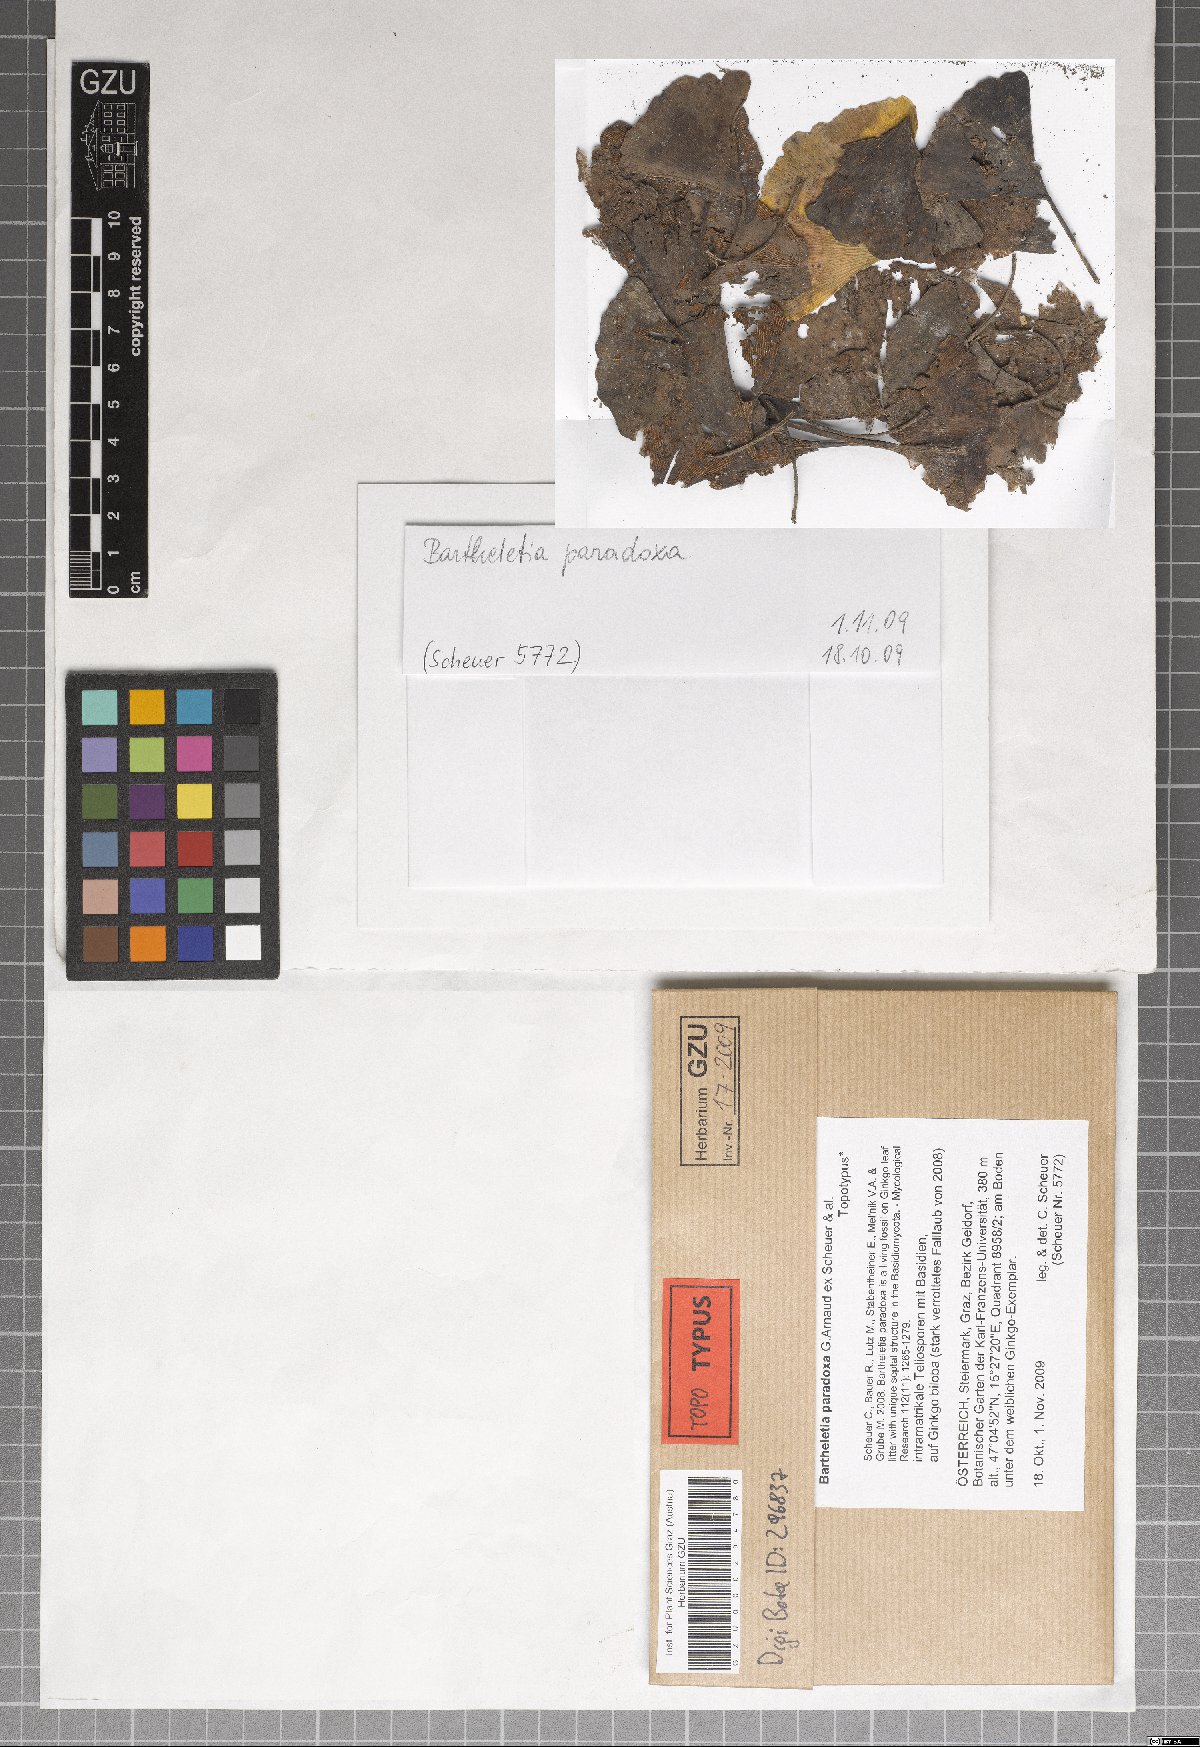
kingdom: Fungi
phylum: Basidiomycota
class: Wallemiomycetes
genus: Bartheletia
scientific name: Bartheletia paradoxa
